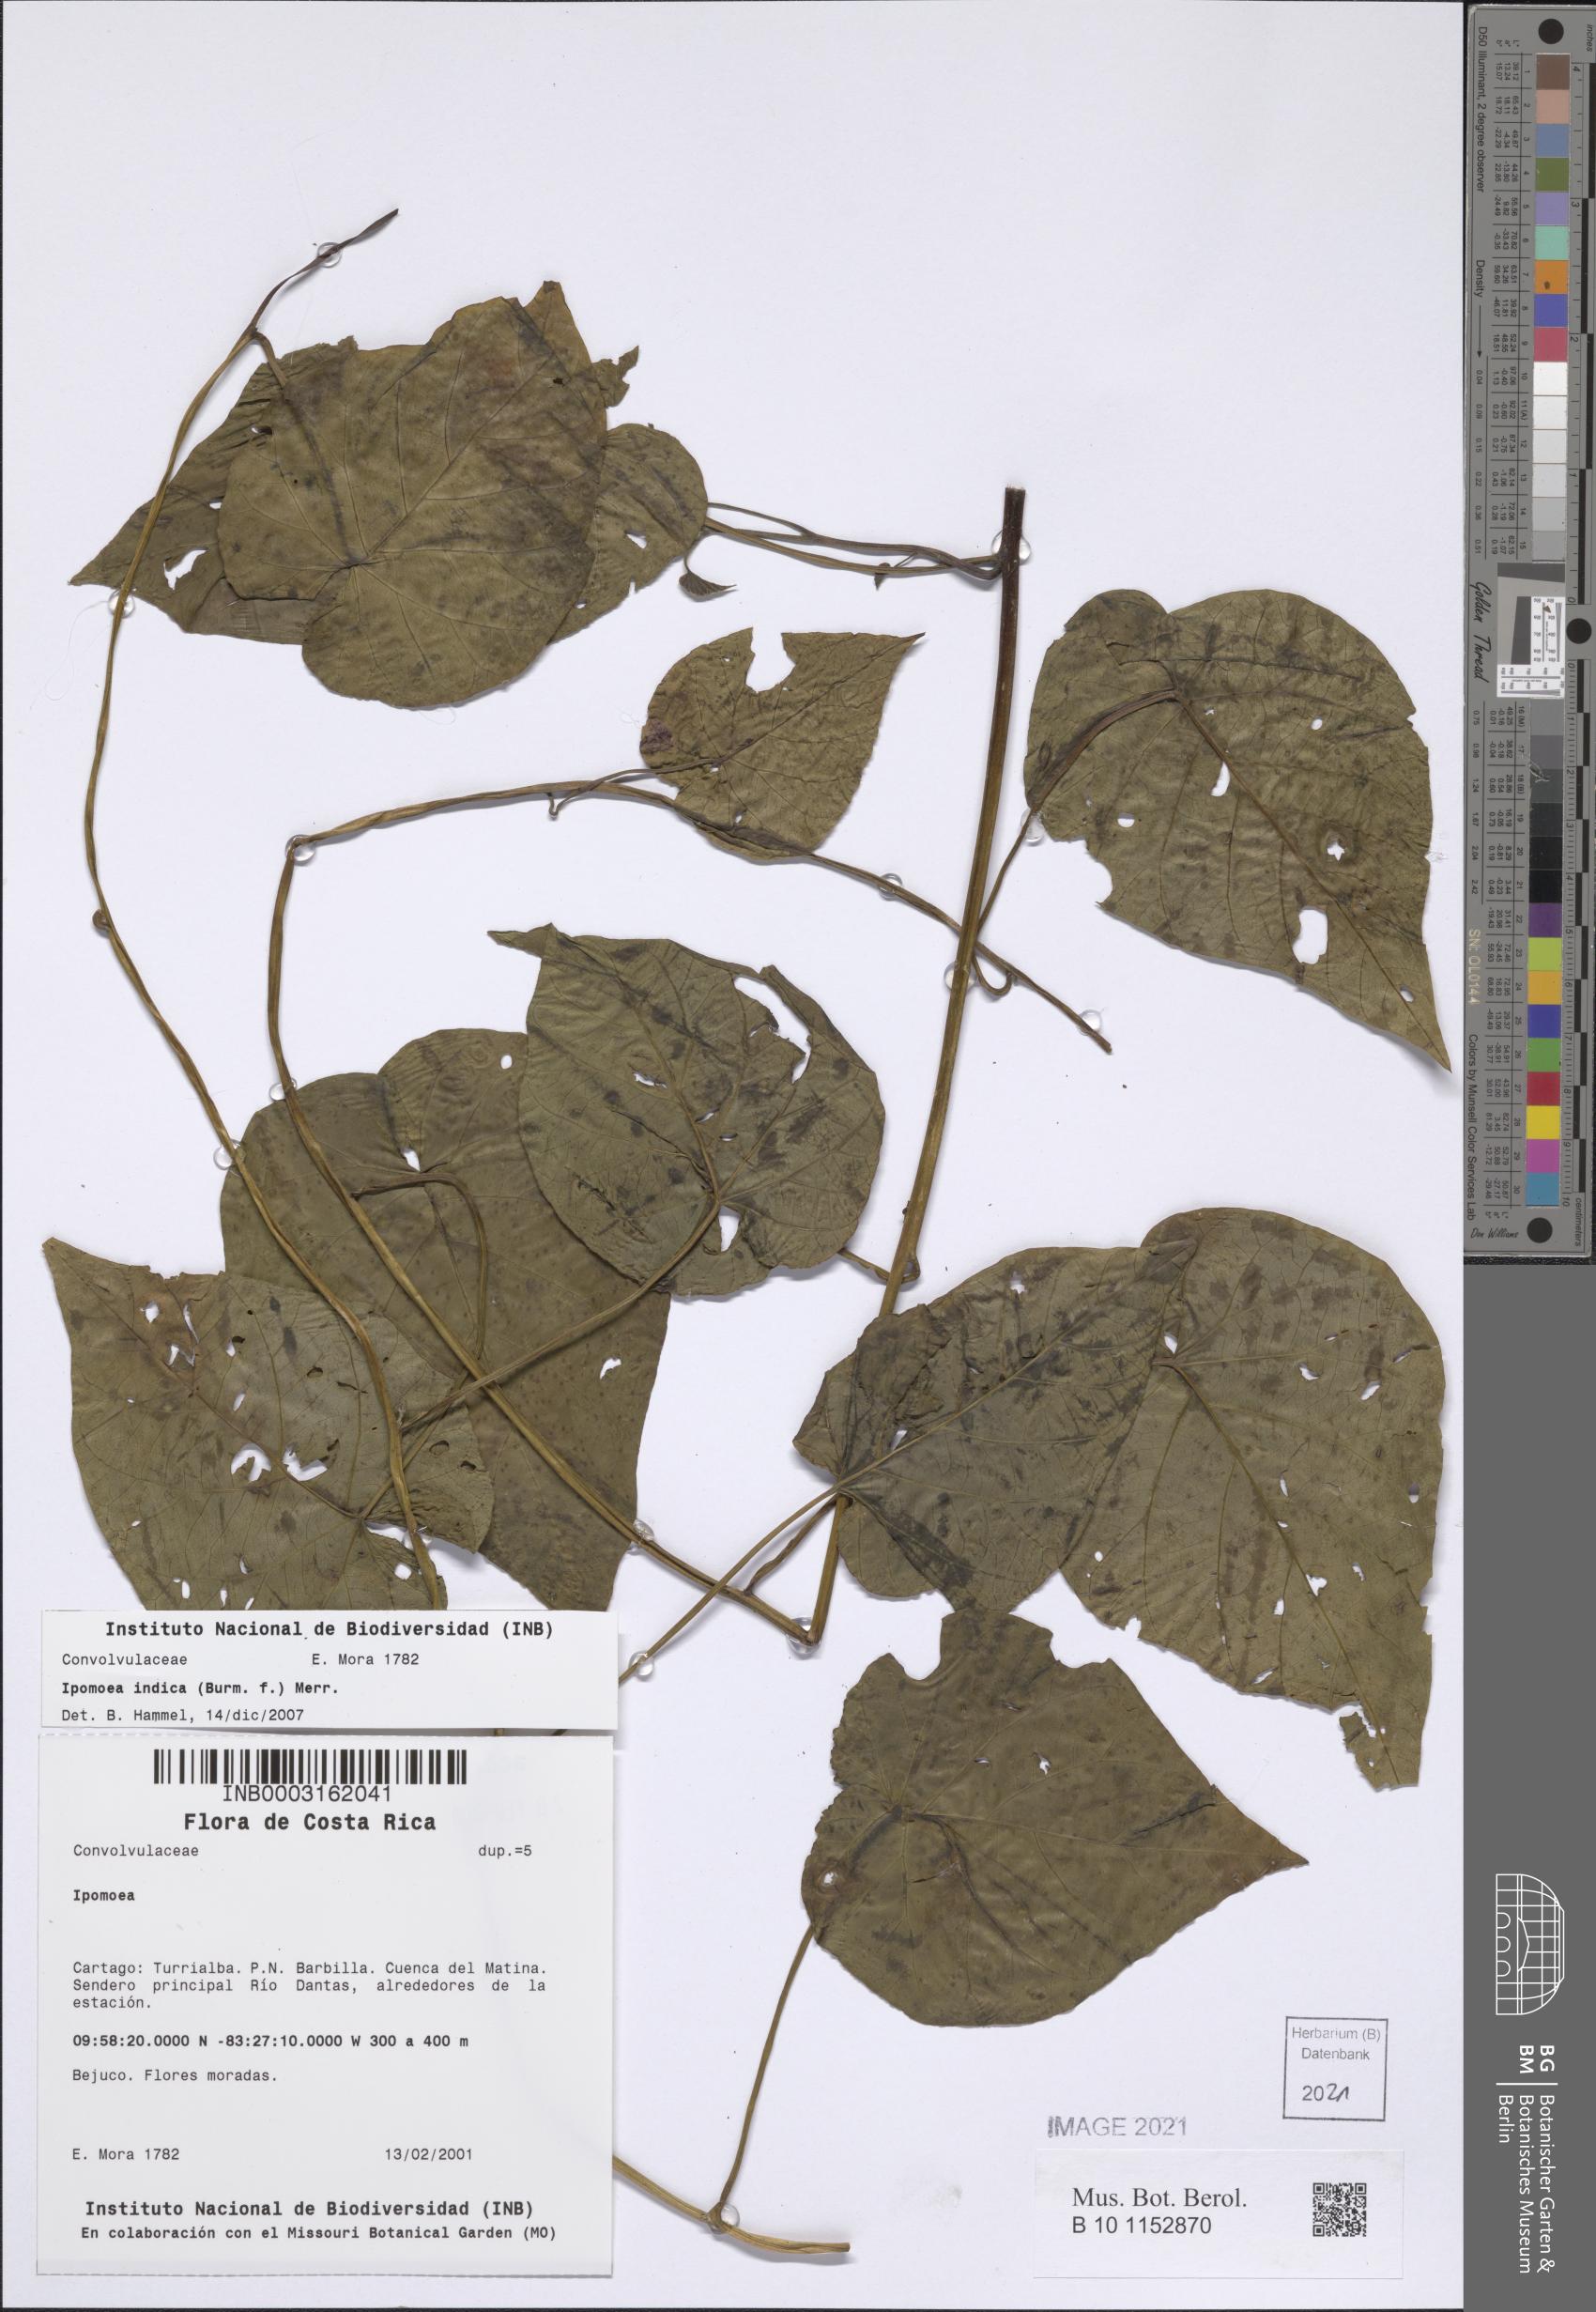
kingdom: Plantae
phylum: Tracheophyta
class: Magnoliopsida
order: Solanales
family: Convolvulaceae
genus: Ipomoea
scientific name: Ipomoea indica
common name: Blue dawnflower
